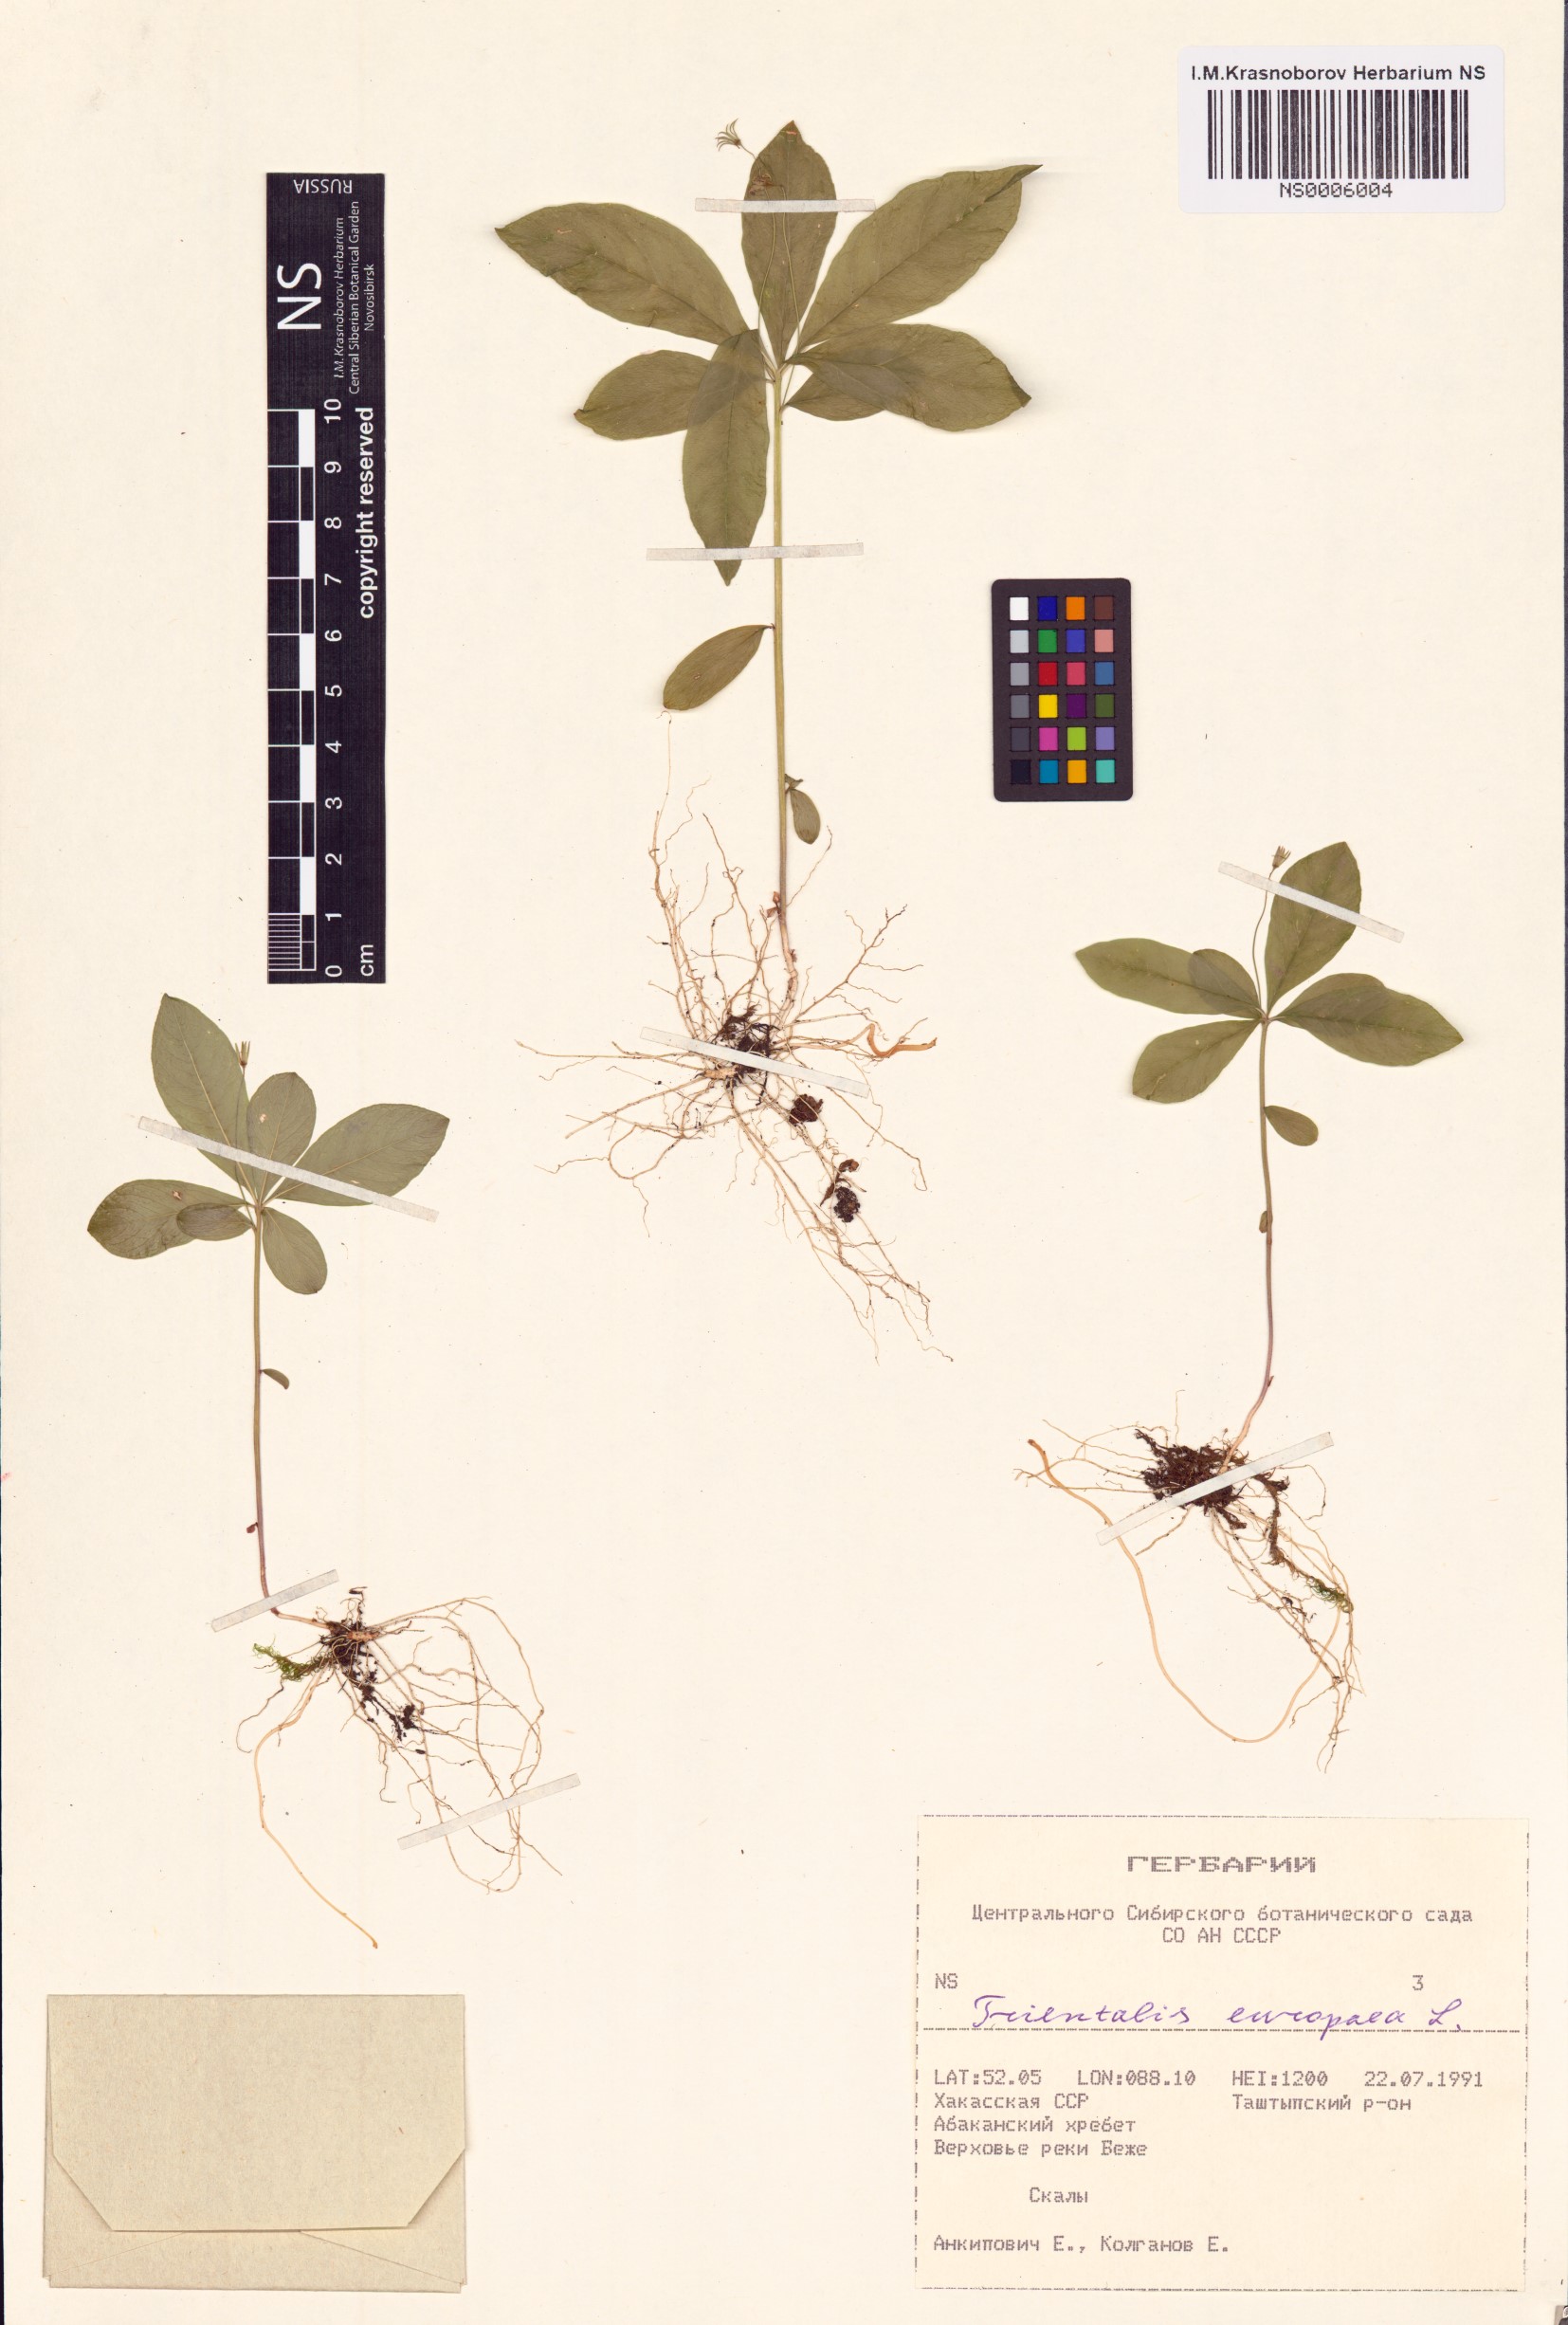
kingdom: Plantae
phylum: Tracheophyta
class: Magnoliopsida
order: Ericales
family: Primulaceae
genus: Lysimachia
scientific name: Lysimachia europaea
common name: Arctic starflower
